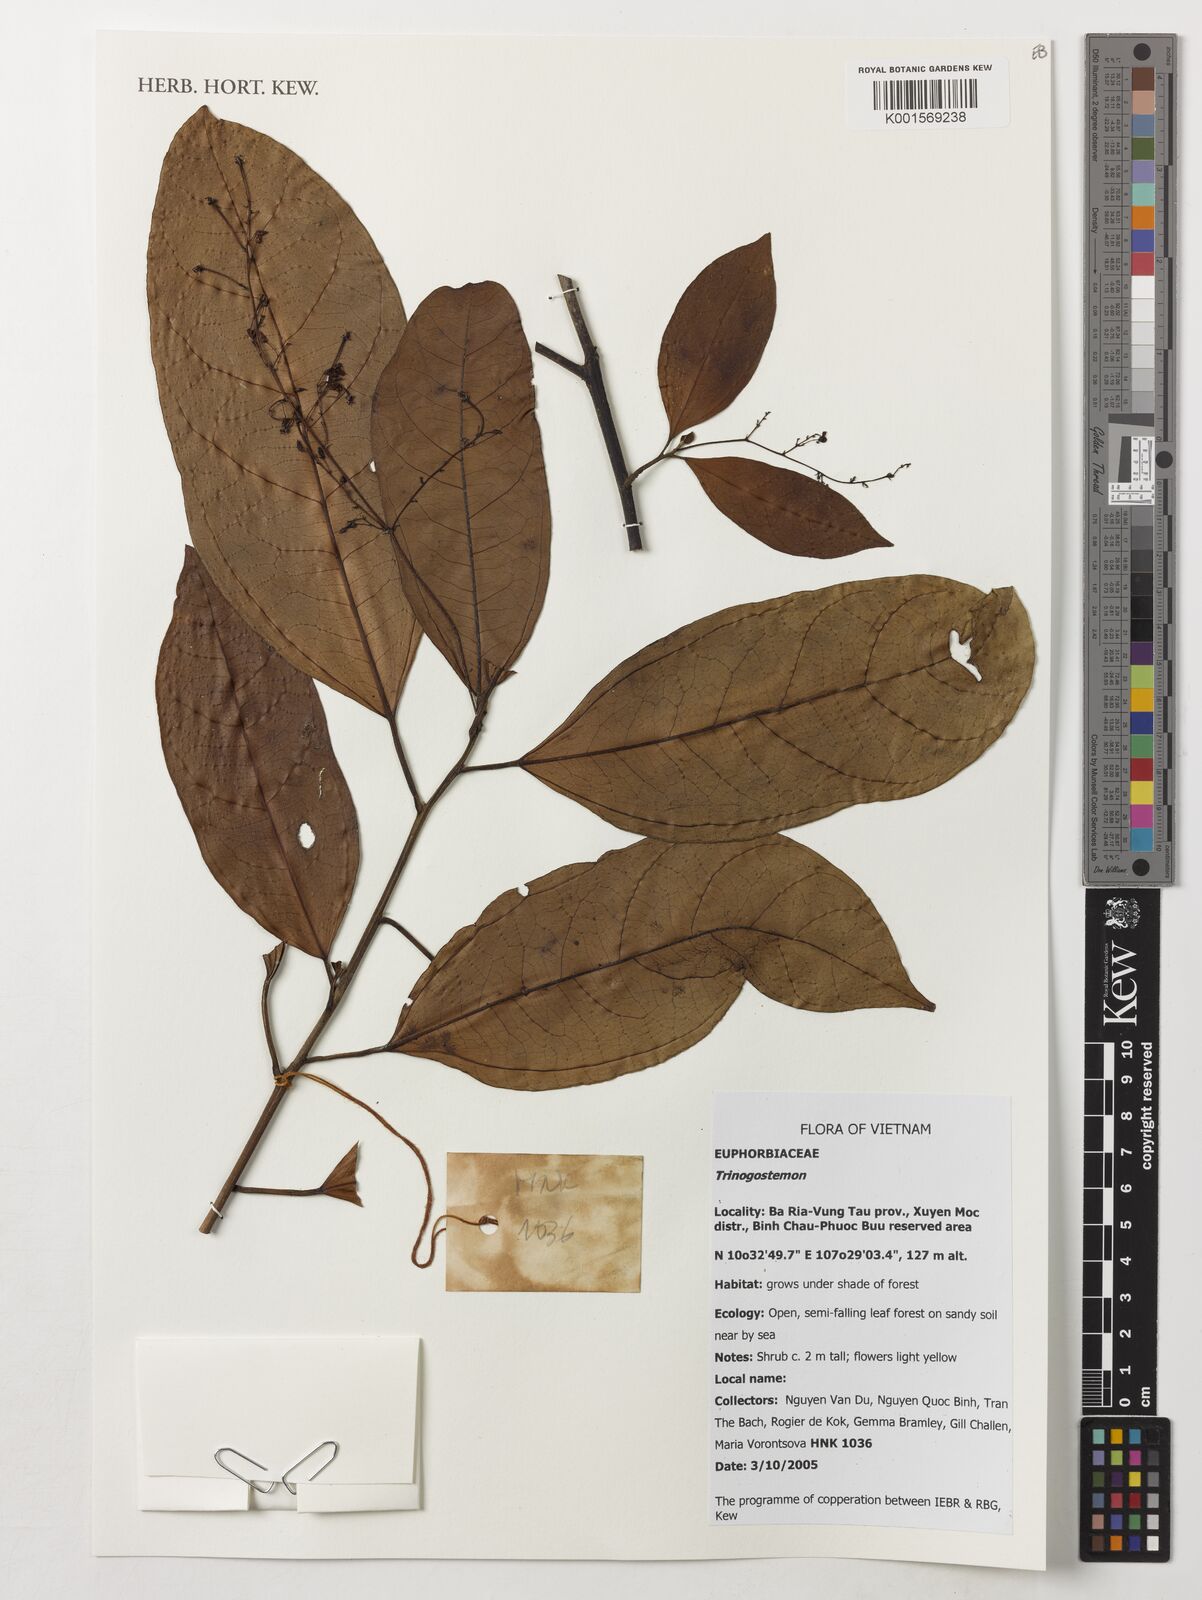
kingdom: Plantae
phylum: Tracheophyta
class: Magnoliopsida
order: Malpighiales
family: Euphorbiaceae
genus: Trigonostemon
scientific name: Trigonostemon
